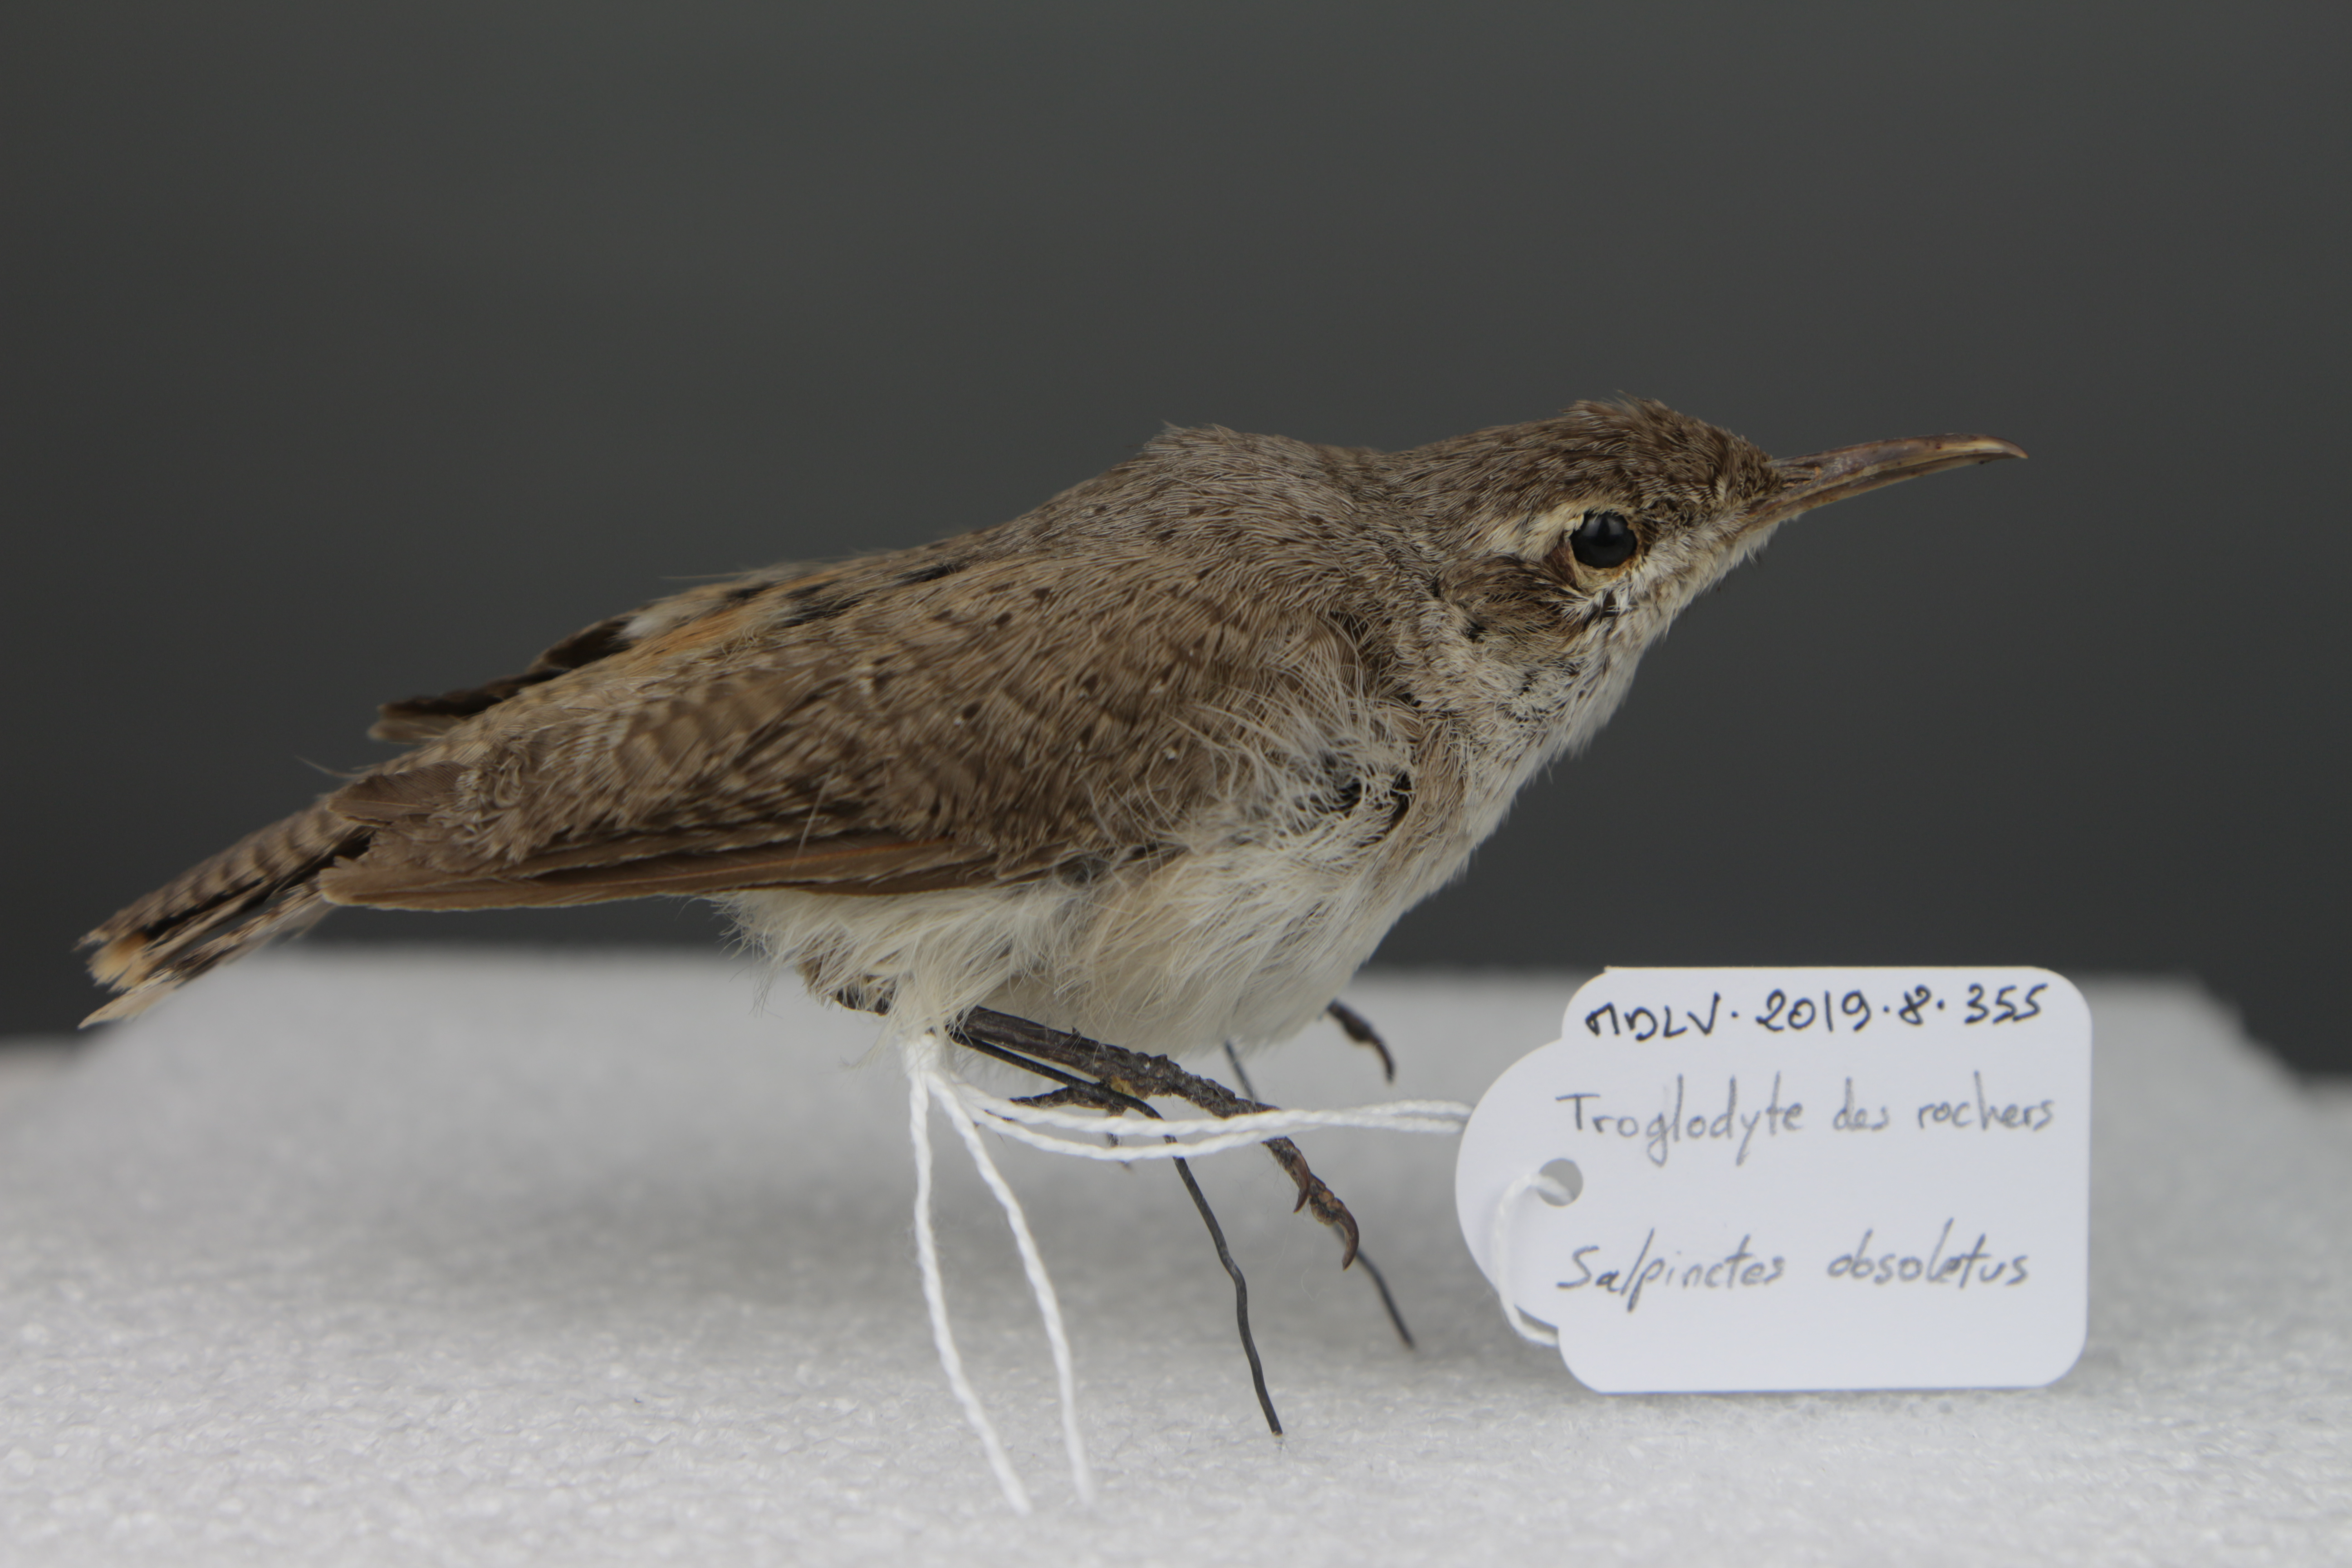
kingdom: Animalia
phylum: Chordata
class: Aves
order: Passeriformes
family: Troglodytidae
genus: Salpinctes
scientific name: Salpinctes obsoletus
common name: Rock wren
